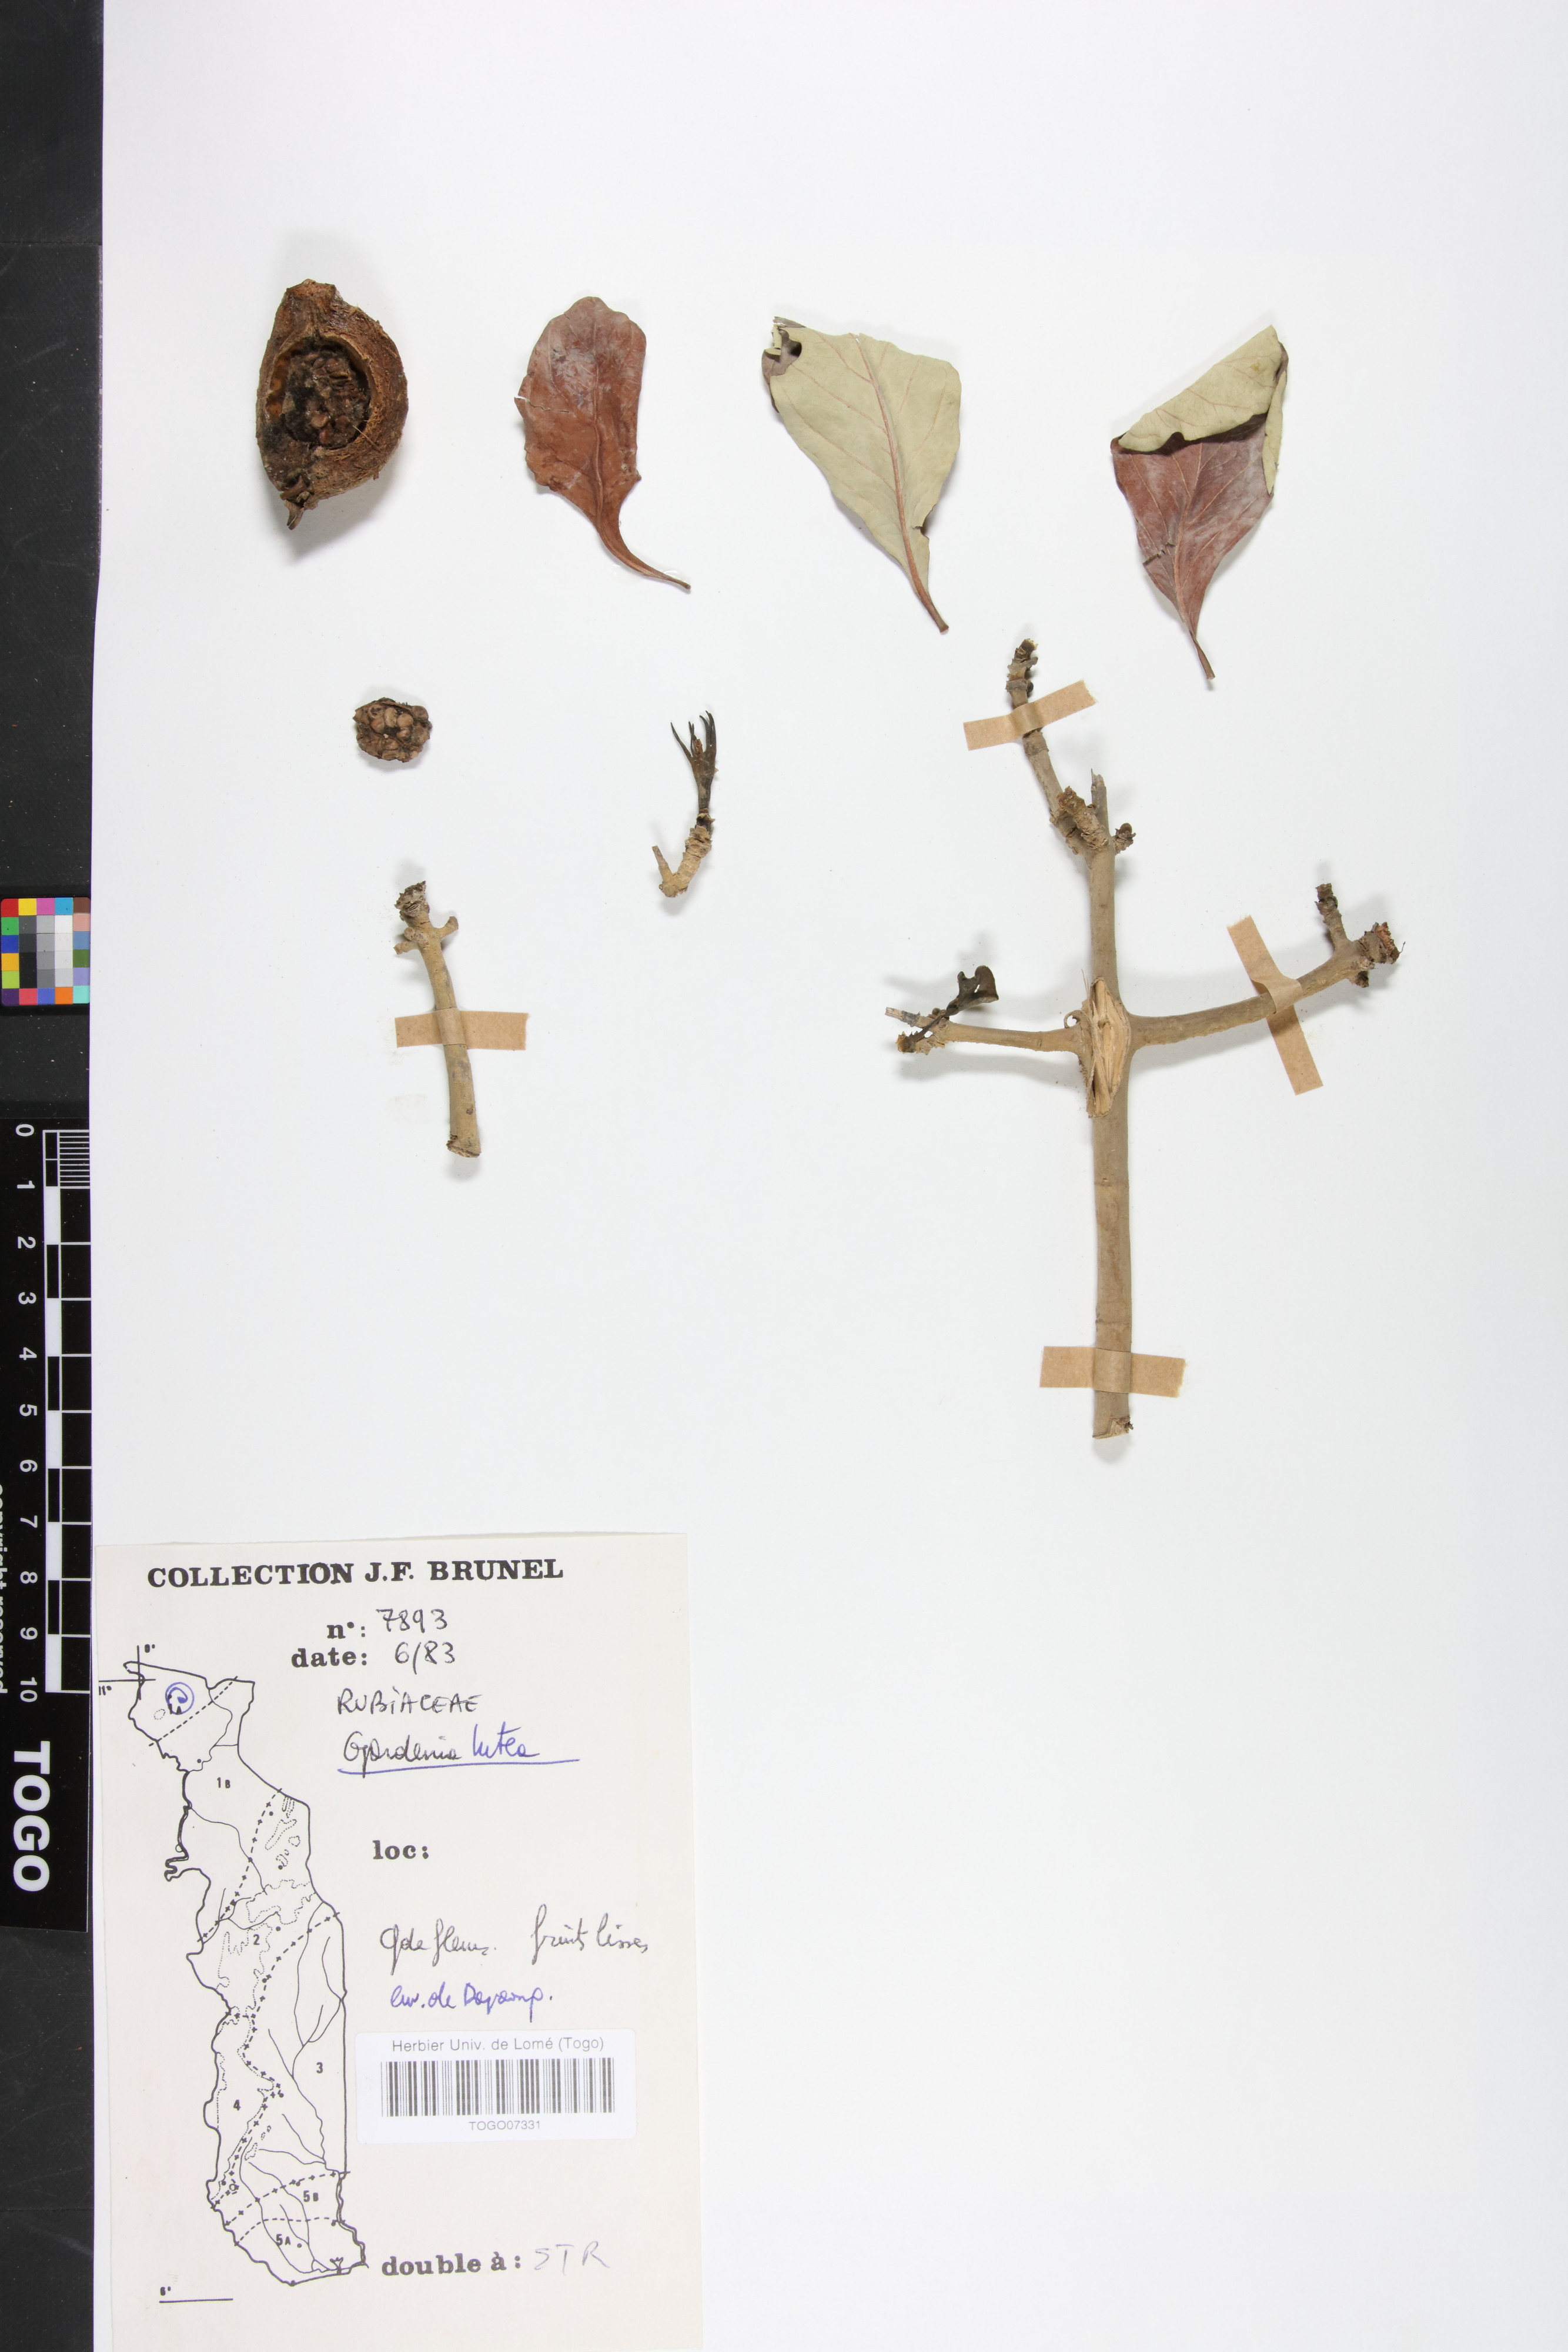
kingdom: Plantae
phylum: Tracheophyta
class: Magnoliopsida
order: Gentianales
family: Rubiaceae
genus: Gardenia
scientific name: Gardenia ternifolia
